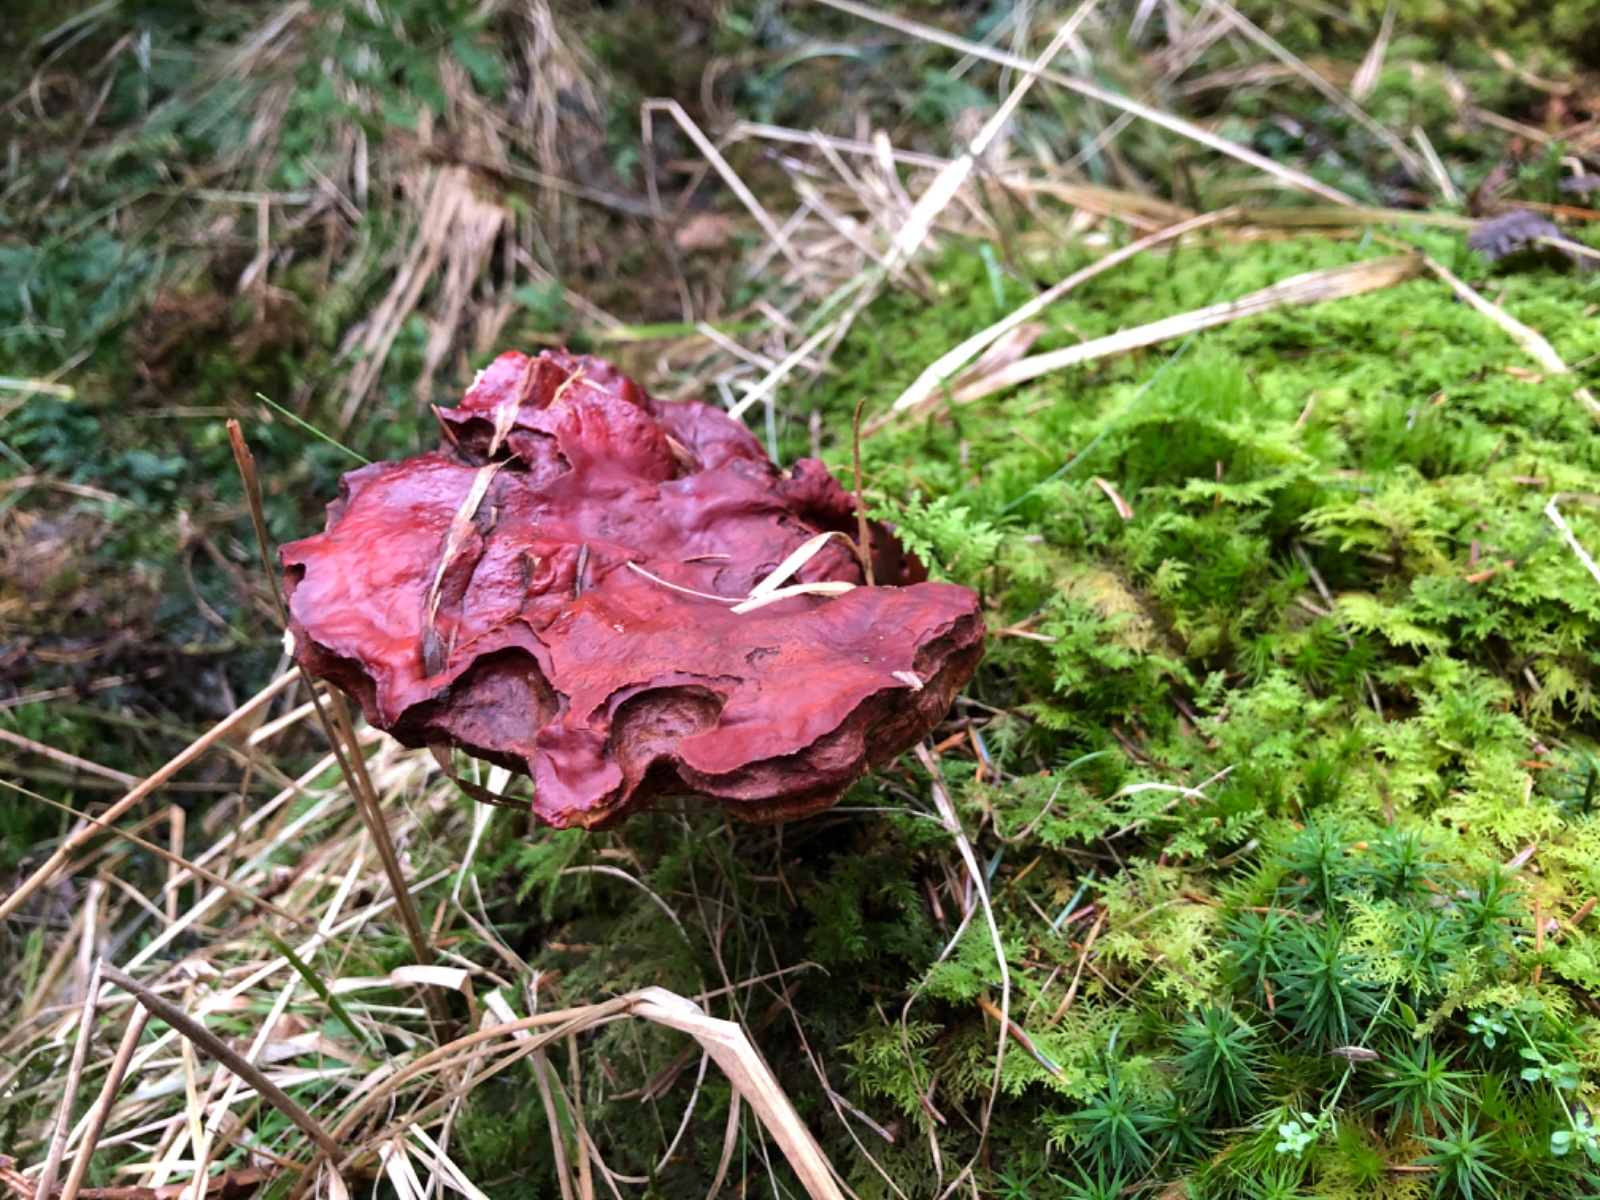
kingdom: Fungi
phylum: Basidiomycota
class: Agaricomycetes
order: Polyporales
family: Polyporaceae
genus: Ganoderma
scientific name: Ganoderma lucidum
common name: skinnende lakporesvamp
